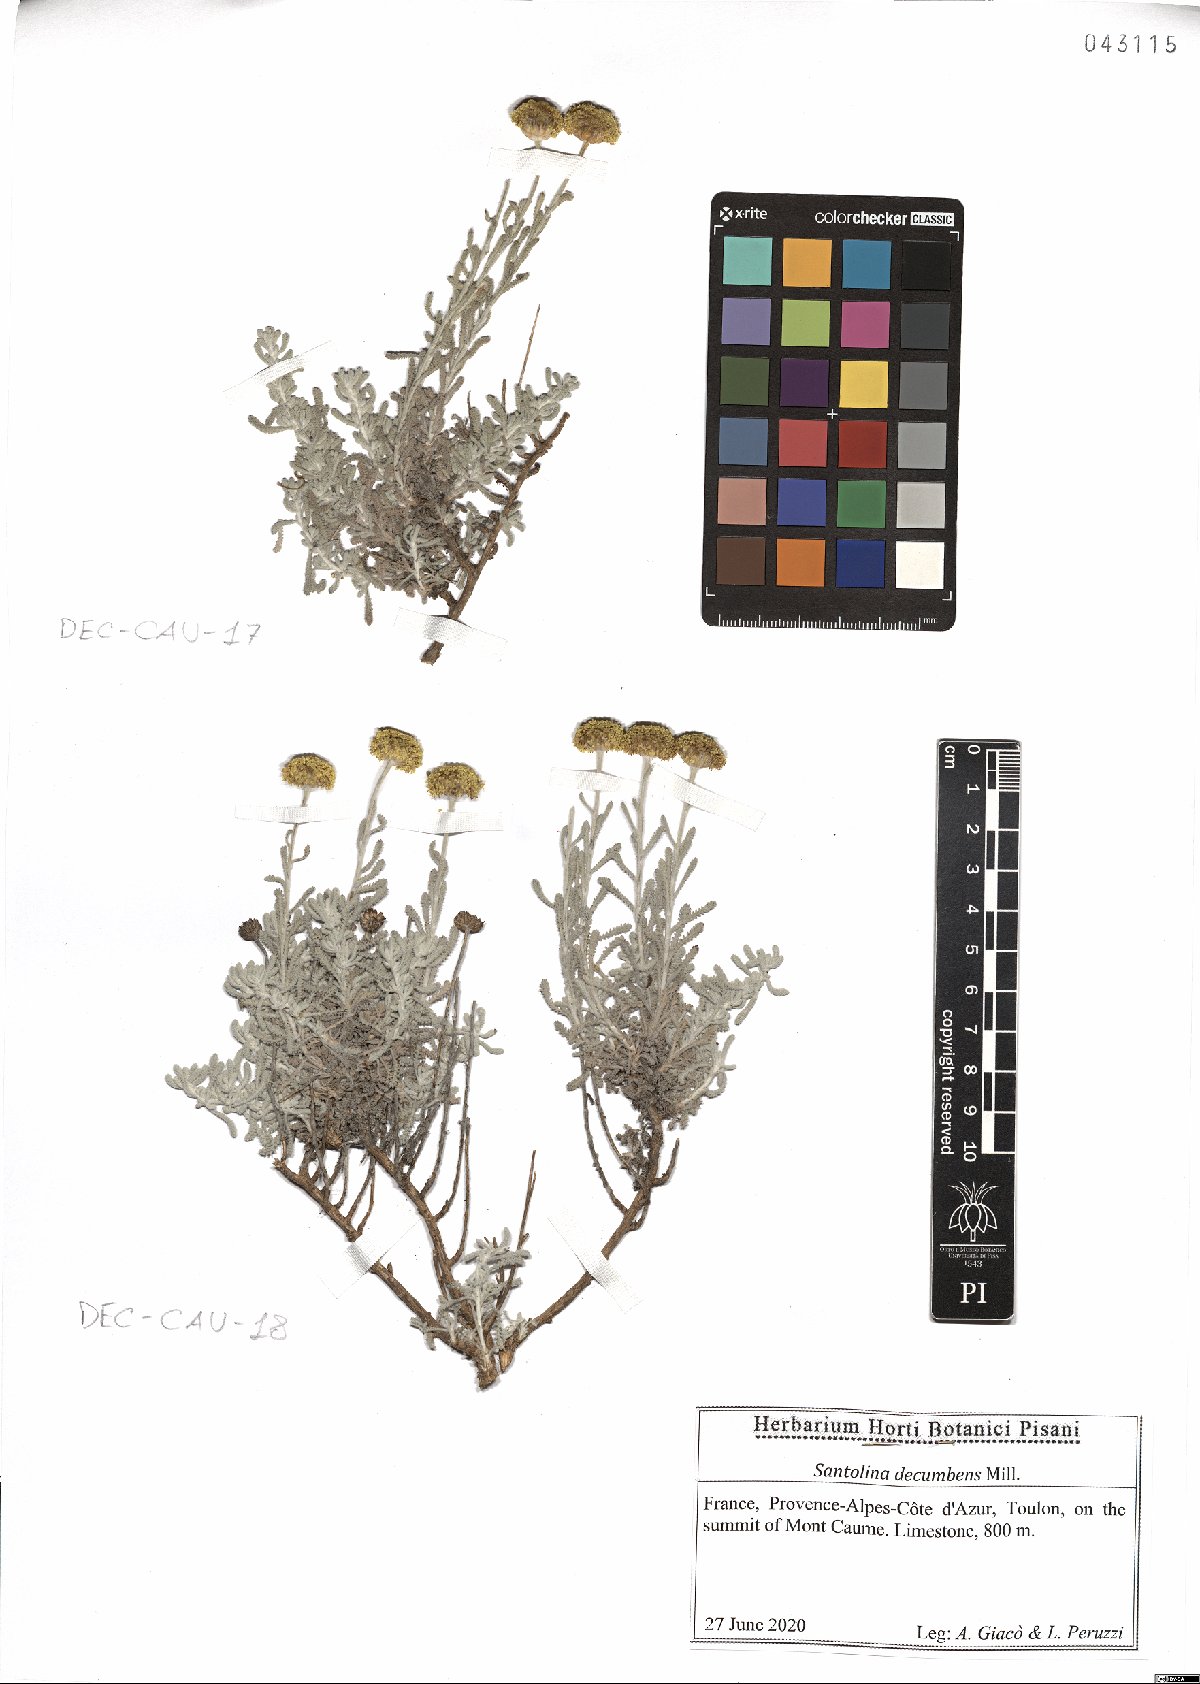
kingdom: Plantae
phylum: Tracheophyta
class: Magnoliopsida
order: Asterales
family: Asteraceae
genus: Santolina
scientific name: Santolina decumbens
